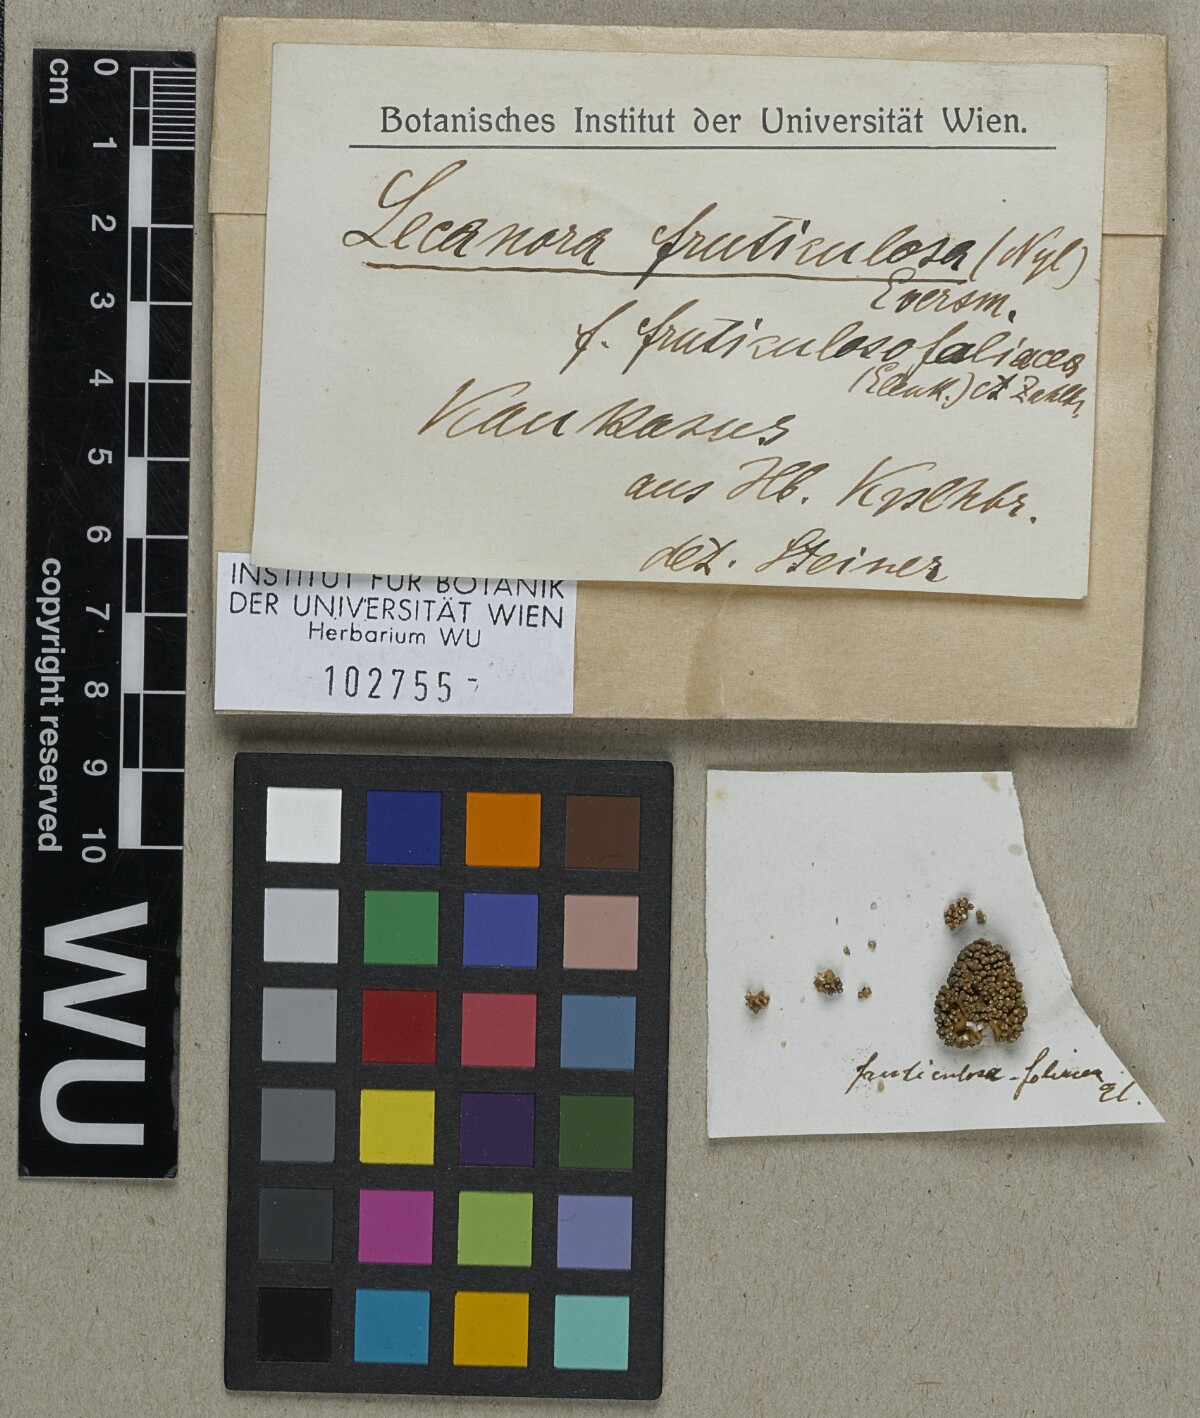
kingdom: Fungi
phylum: Ascomycota
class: Lecanoromycetes
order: Pertusariales
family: Megasporaceae
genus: Aspicilia
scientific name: Aspicilia fruticulosofoliacea
